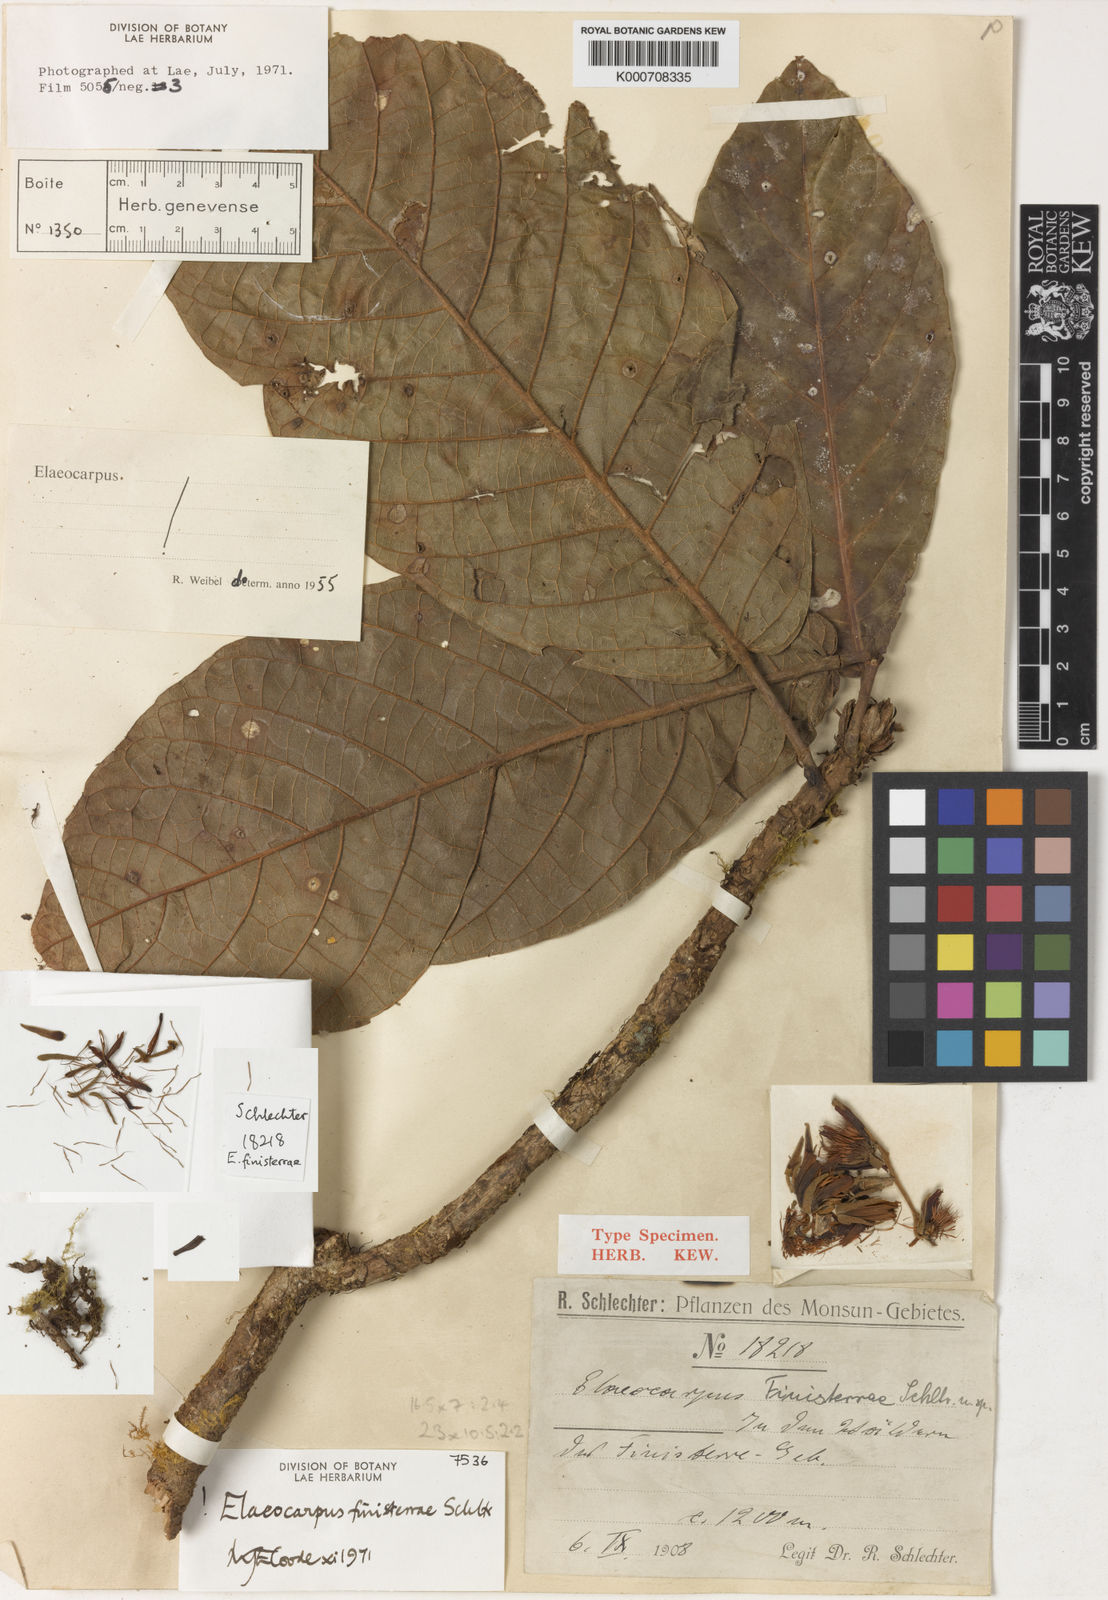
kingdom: Plantae
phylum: Tracheophyta
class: Magnoliopsida
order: Oxalidales
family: Elaeocarpaceae
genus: Elaeocarpus
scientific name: Elaeocarpus finisterrae
